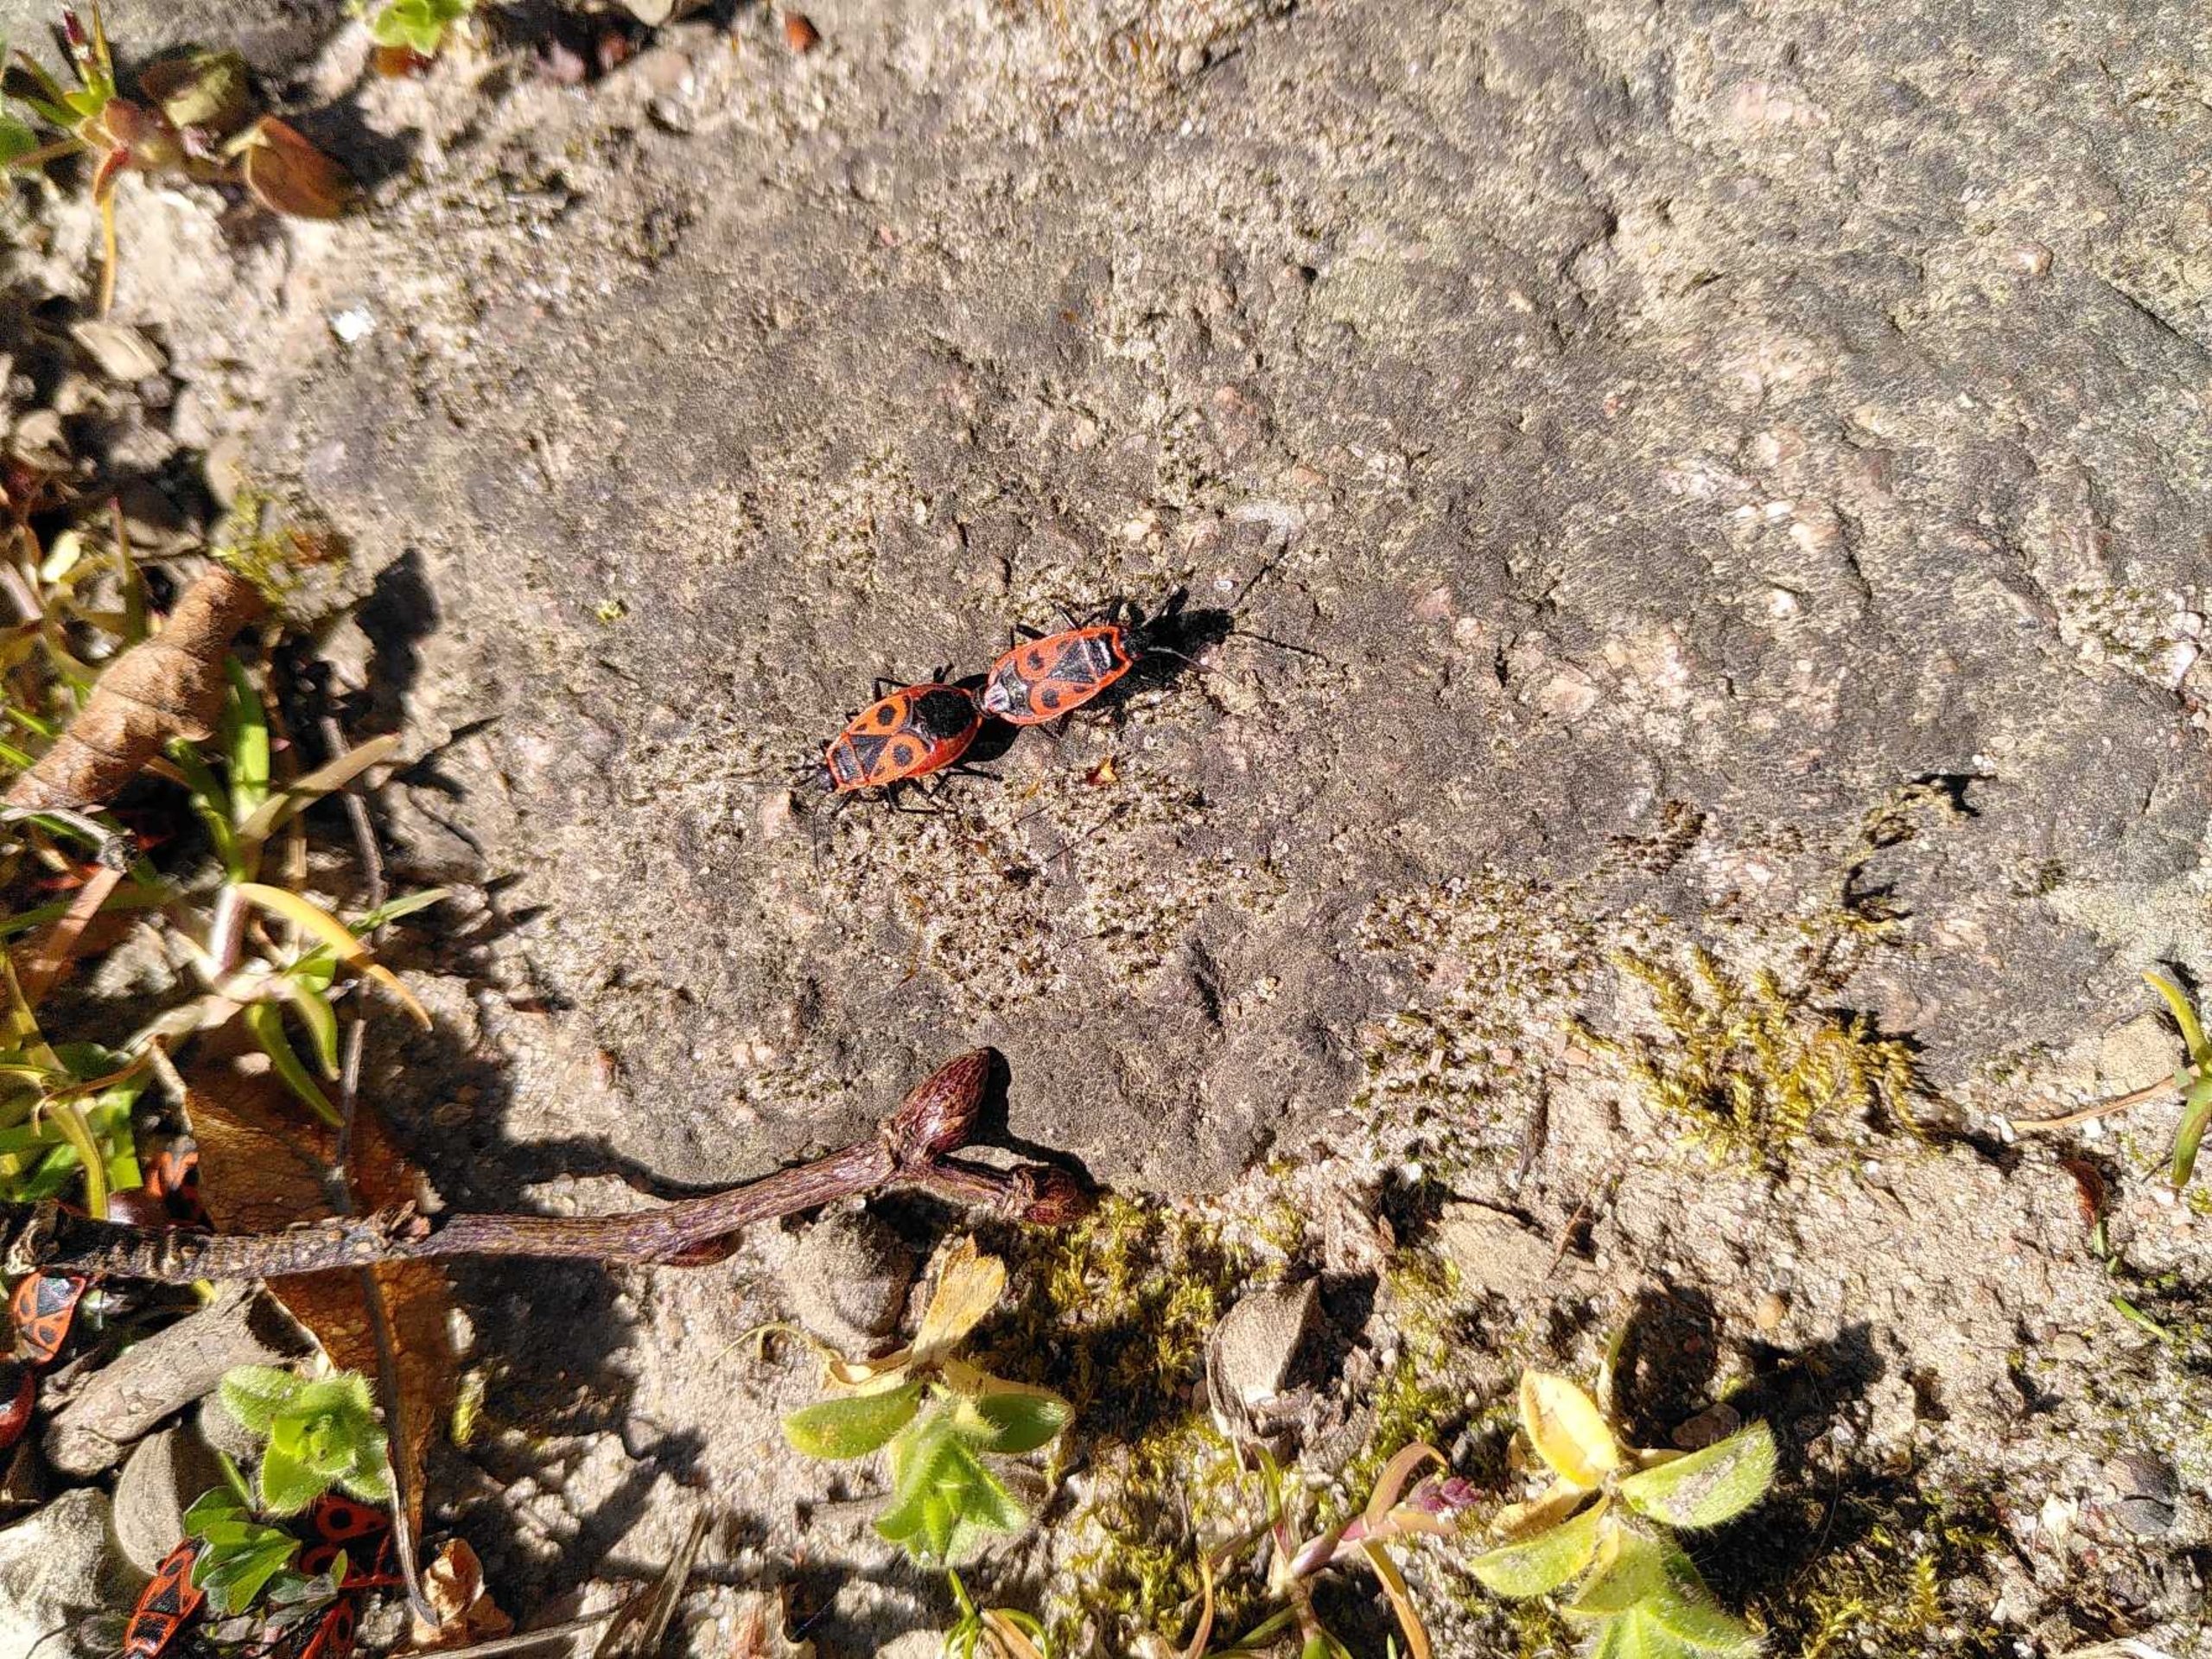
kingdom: Animalia
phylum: Arthropoda
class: Insecta
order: Hemiptera
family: Pyrrhocoridae
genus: Pyrrhocoris
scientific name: Pyrrhocoris apterus
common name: Ildtæge
